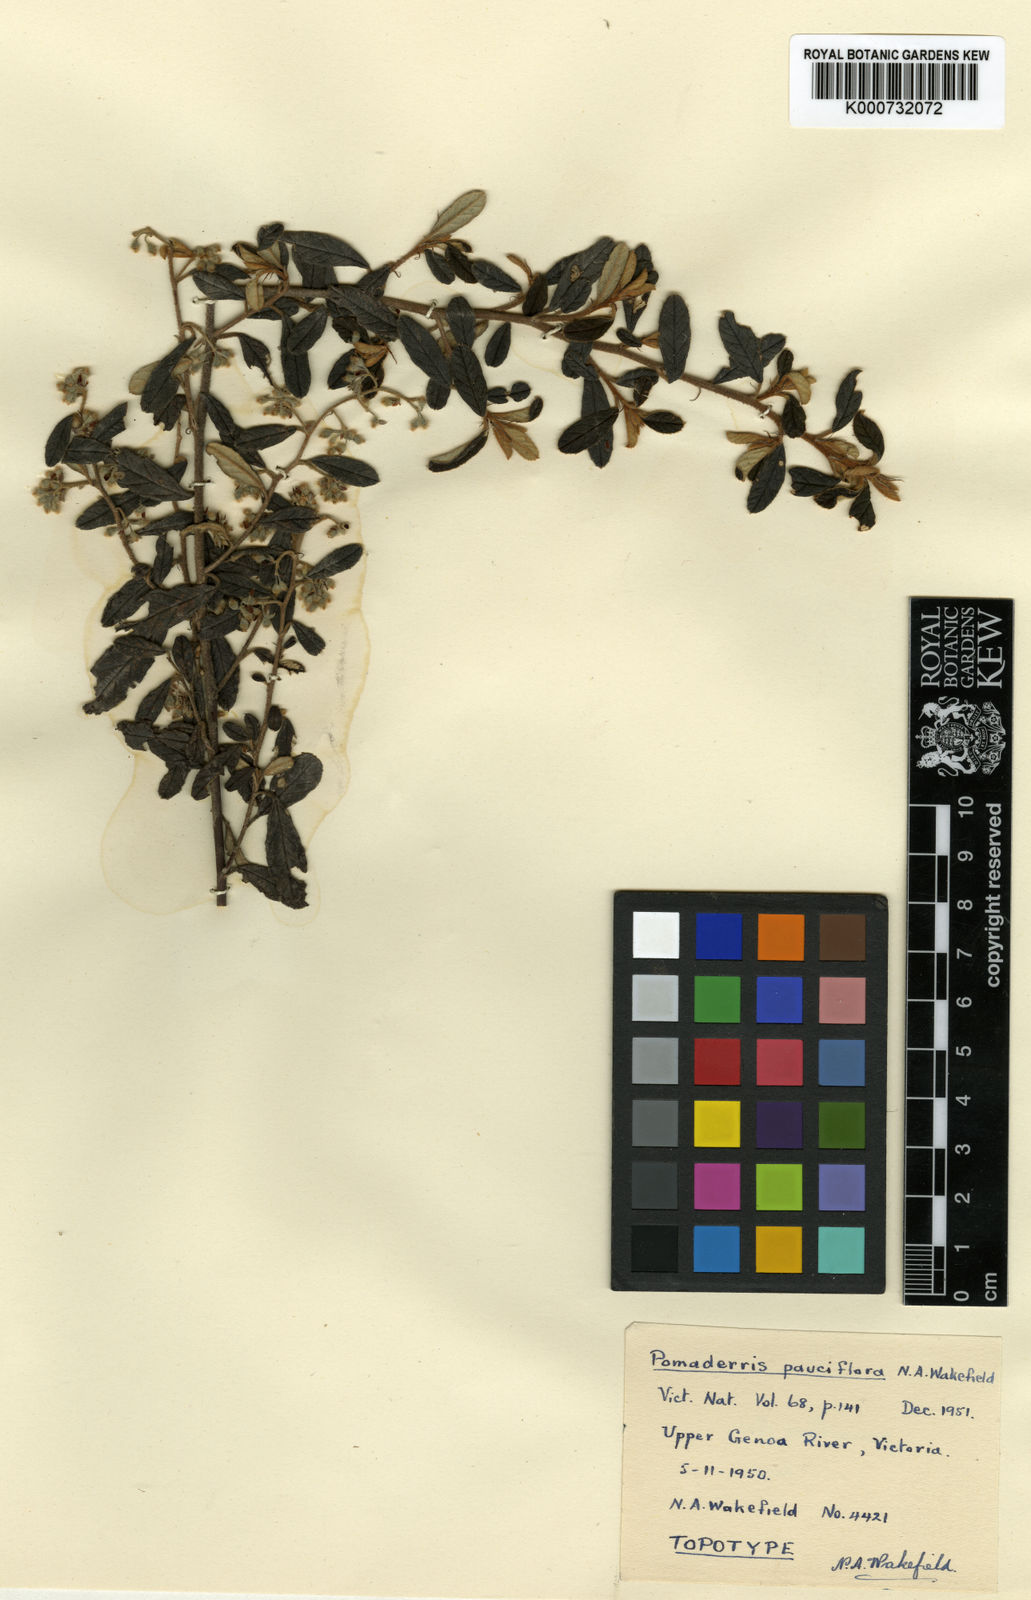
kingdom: Plantae
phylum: Tracheophyta
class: Magnoliopsida
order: Rosales
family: Rhamnaceae
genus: Pomaderris
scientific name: Pomaderris pauciflora
